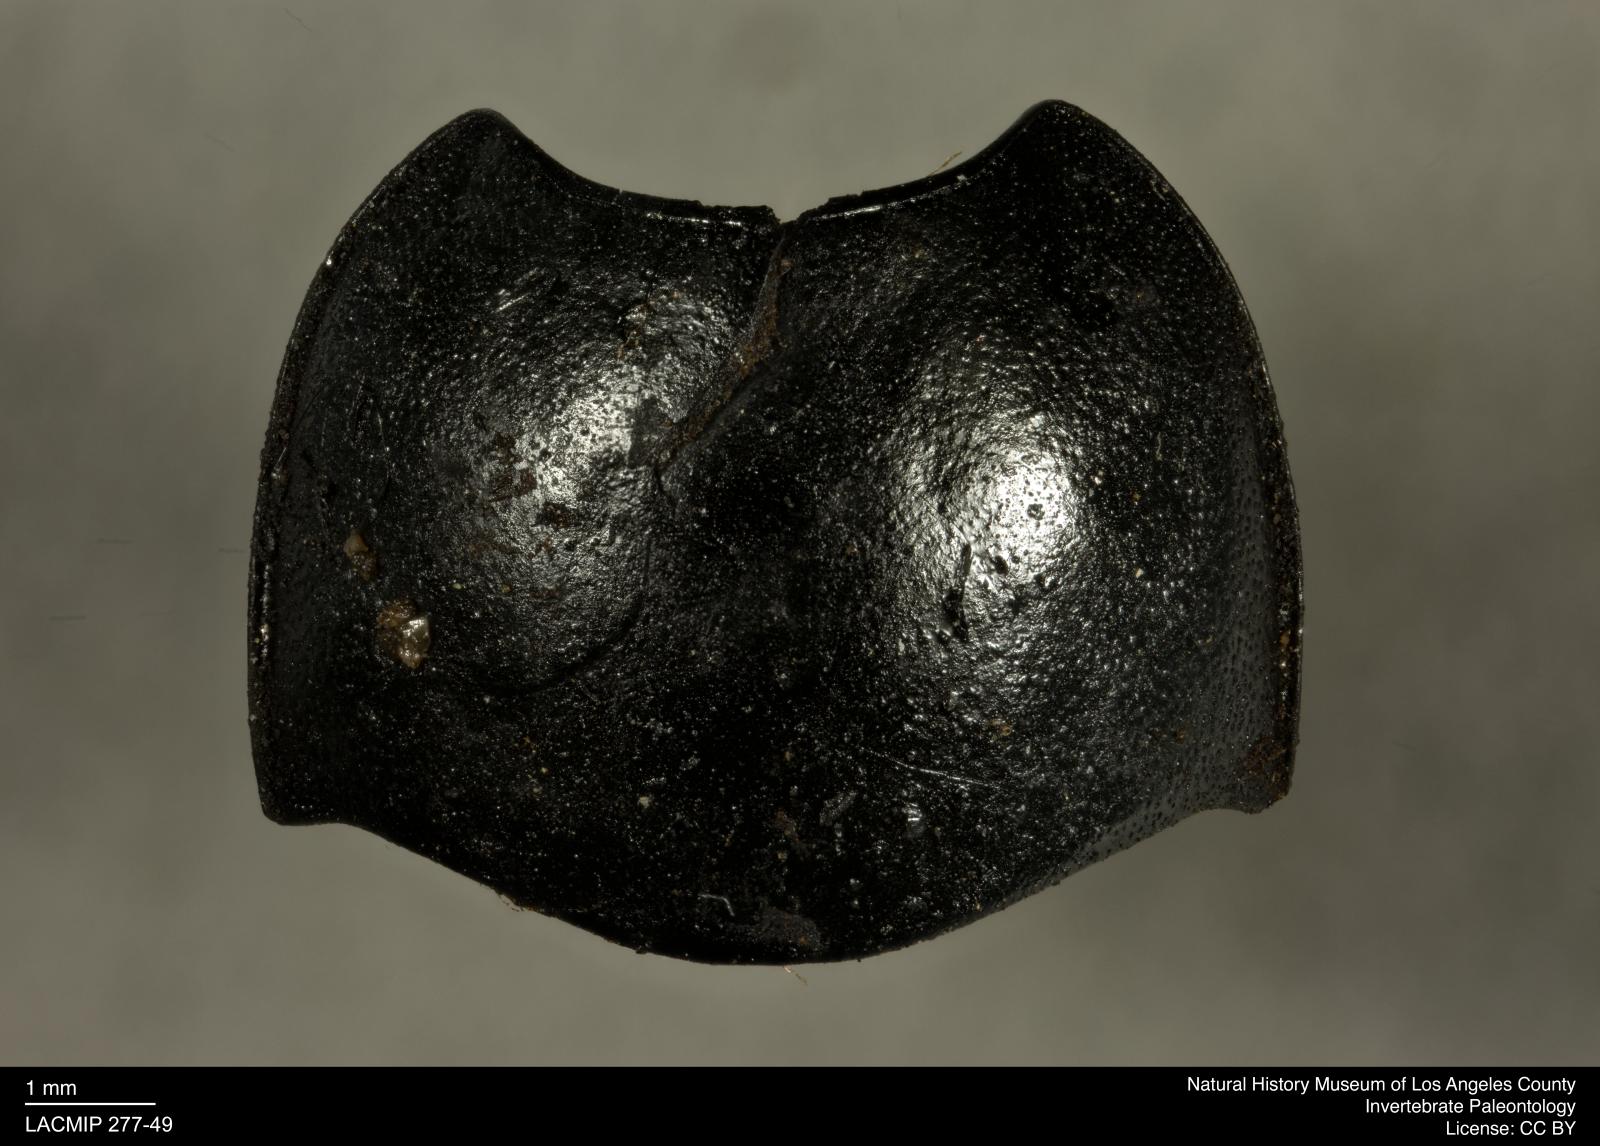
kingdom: Animalia
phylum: Arthropoda
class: Insecta
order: Coleoptera
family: Tenebrionidae
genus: Coniontis
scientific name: Coniontis abdominalis
